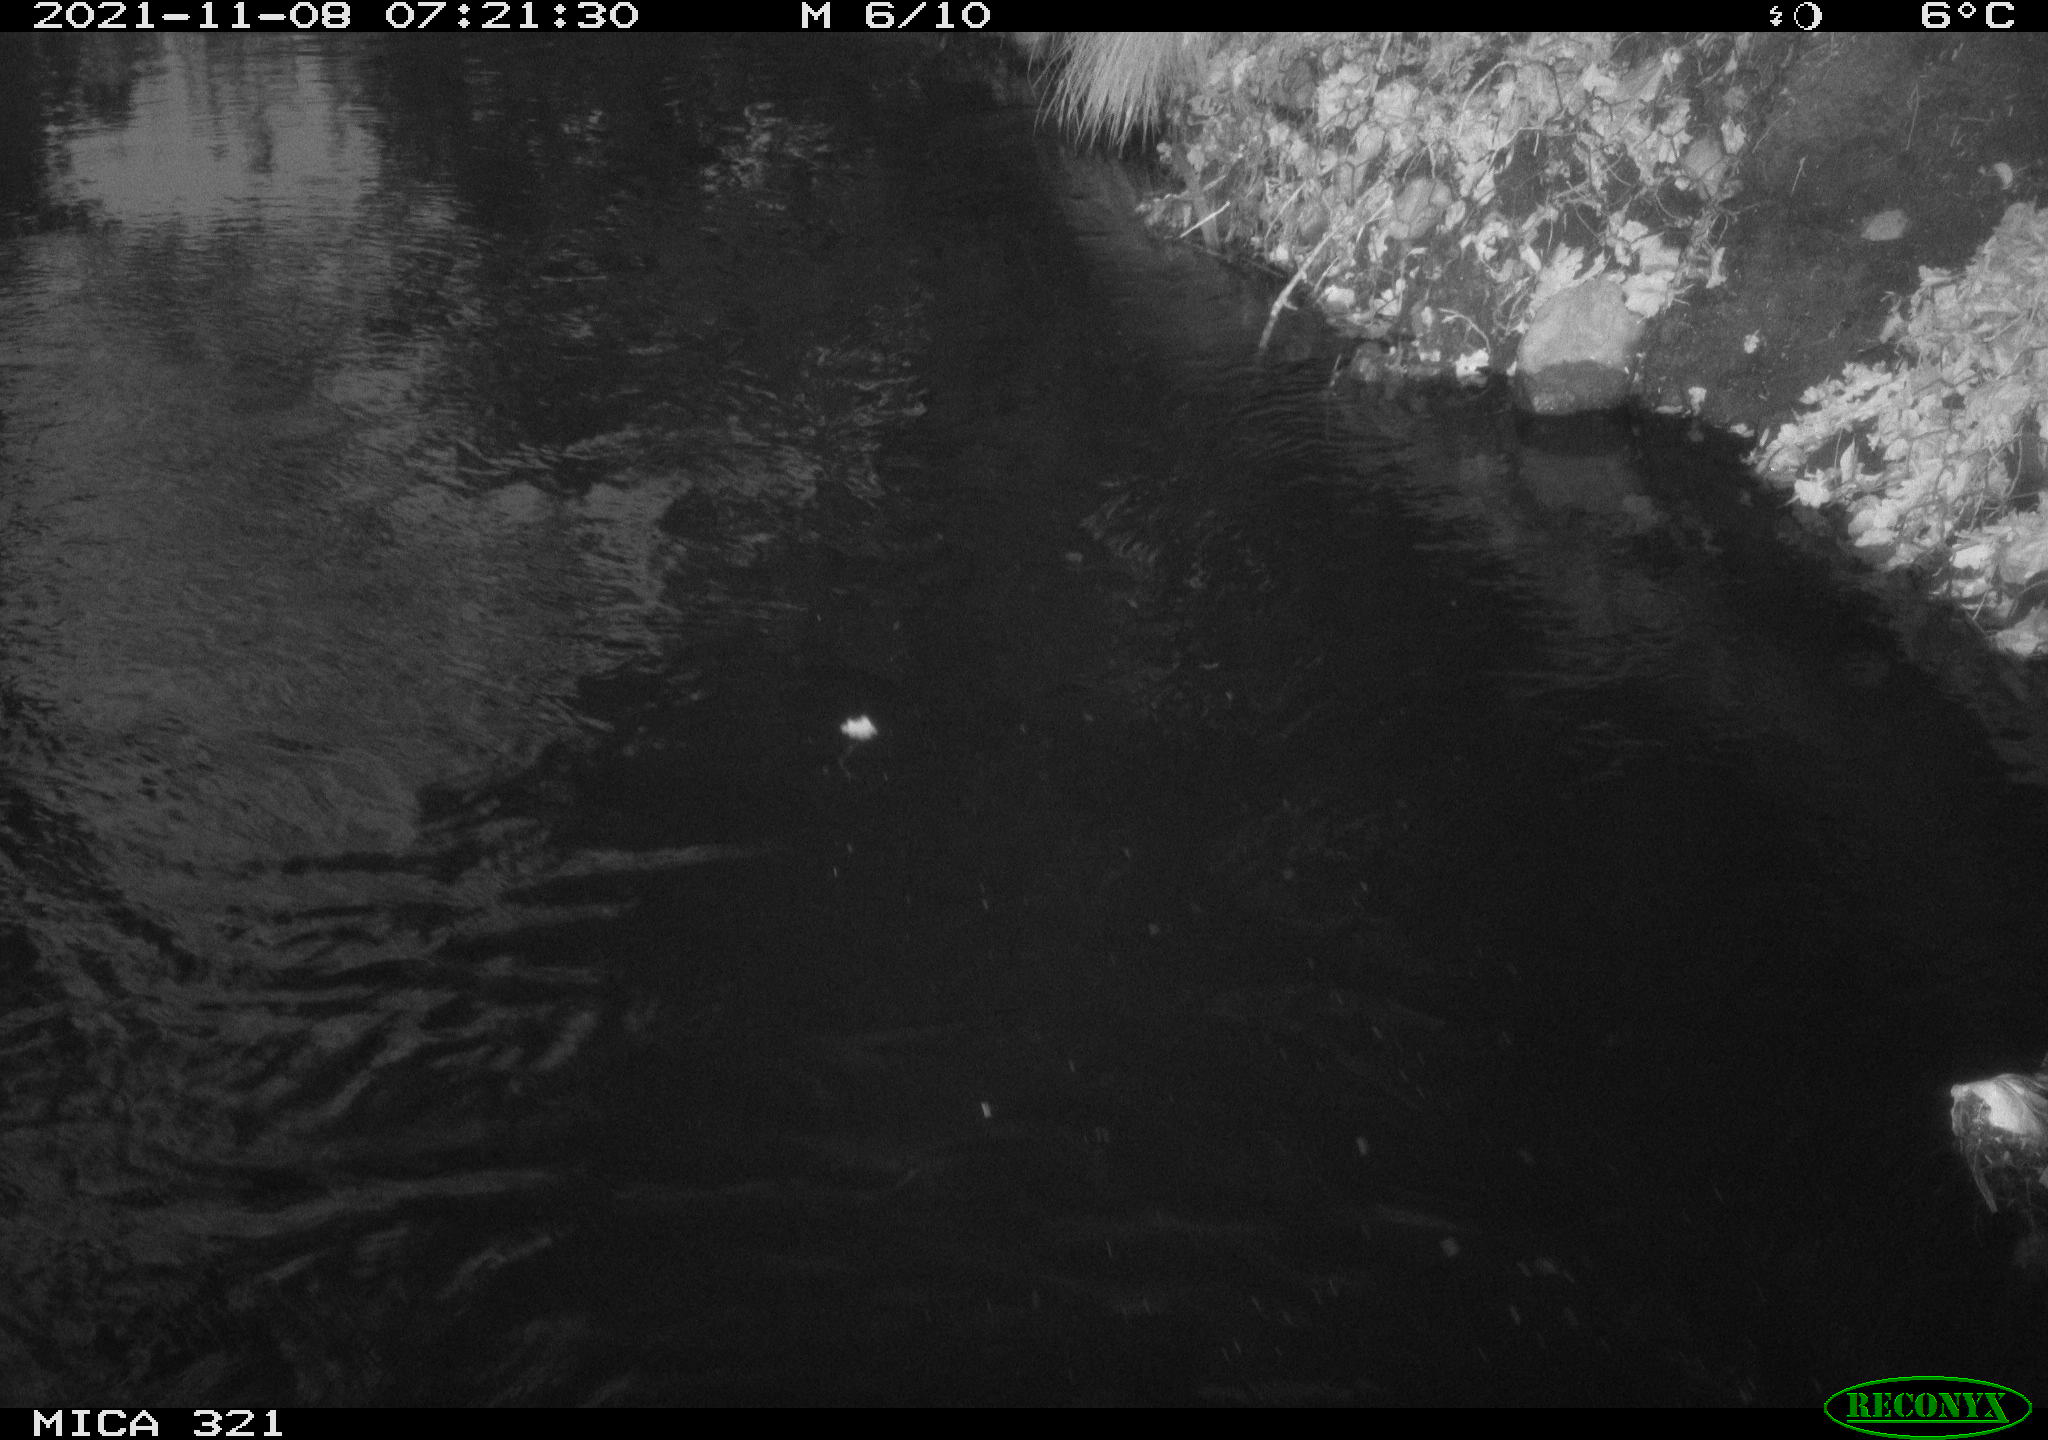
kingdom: Animalia
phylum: Chordata
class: Aves
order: Anseriformes
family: Anatidae
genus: Mareca
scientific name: Mareca strepera
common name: Gadwall
